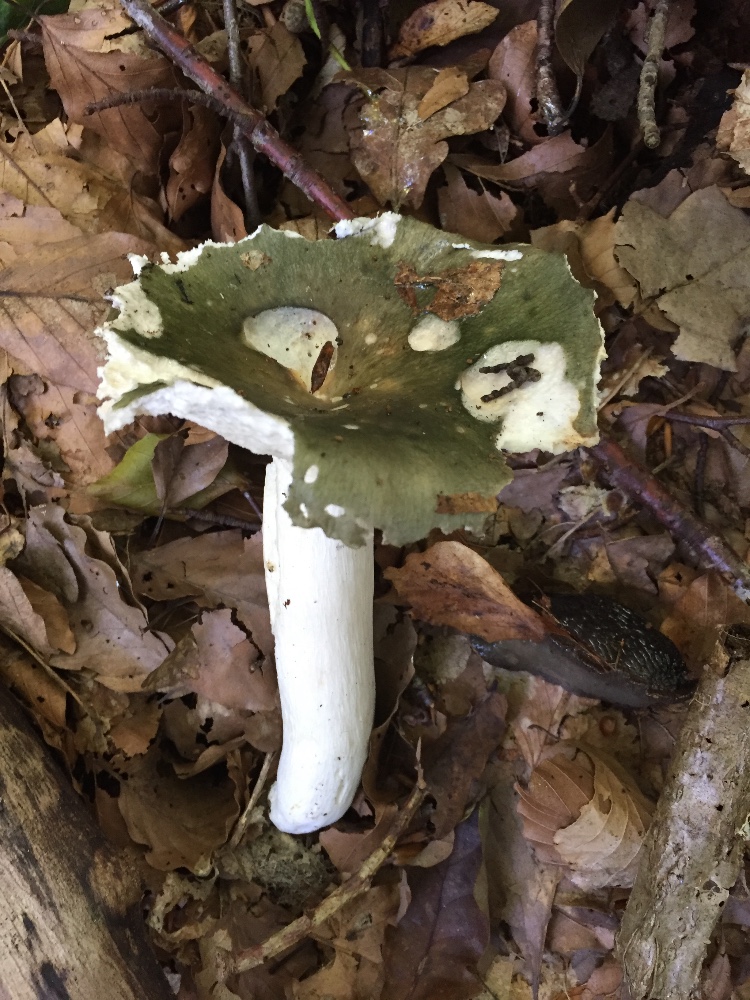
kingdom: Fungi
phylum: Basidiomycota
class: Agaricomycetes
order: Russulales
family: Russulaceae
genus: Russula
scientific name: Russula cyanoxantha
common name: broget skørhat
